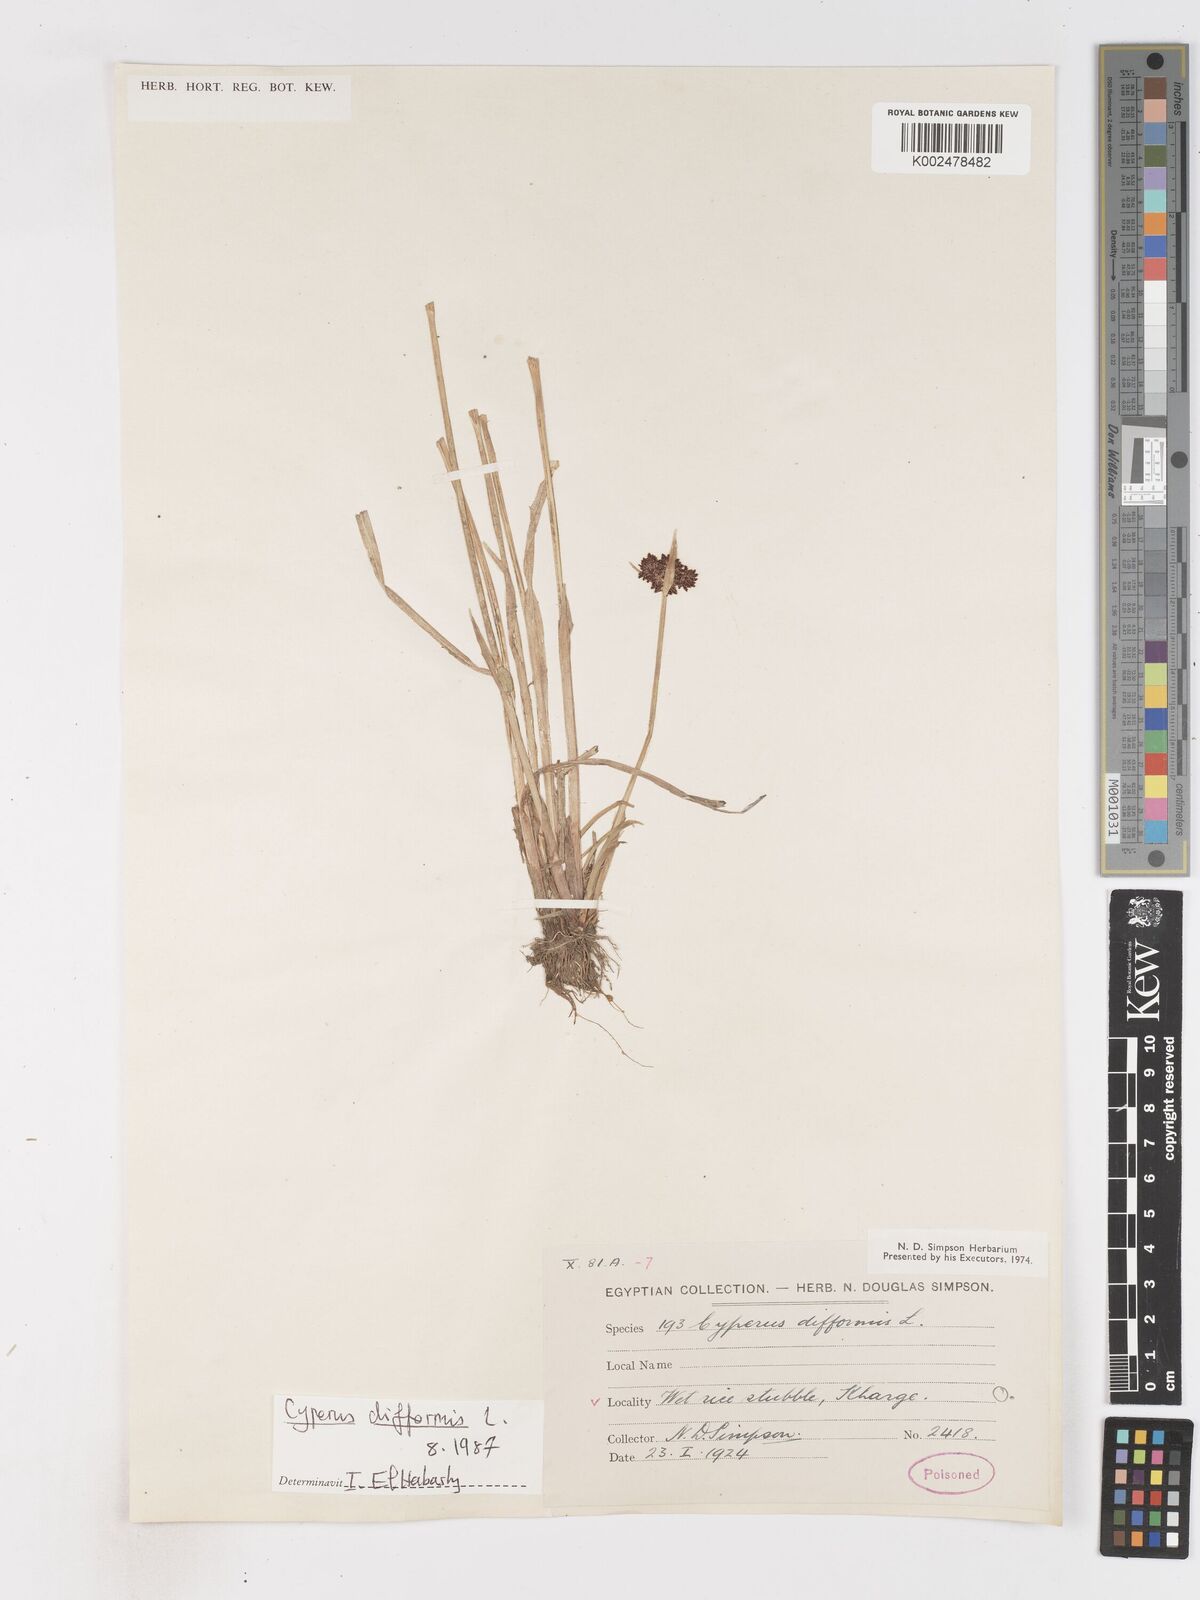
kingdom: Plantae
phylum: Tracheophyta
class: Liliopsida
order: Poales
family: Cyperaceae
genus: Cyperus
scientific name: Cyperus difformis
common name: Variable flatsedge
